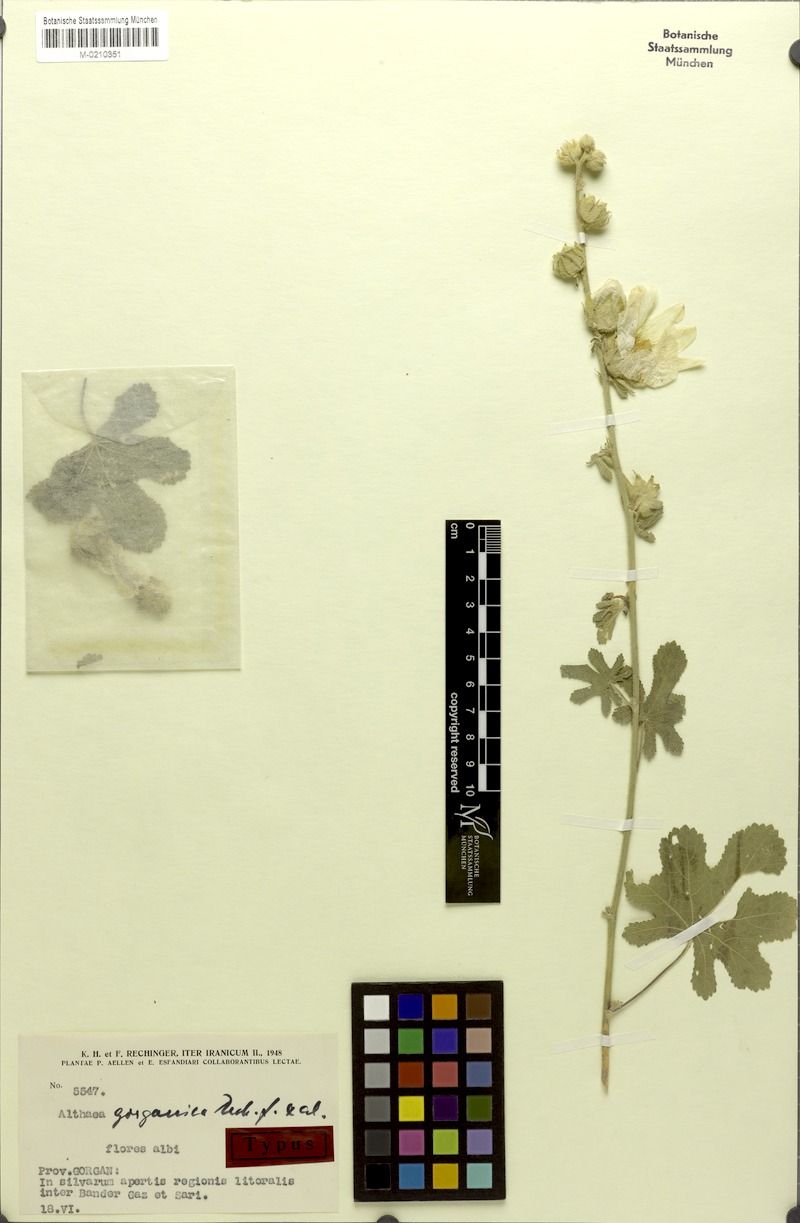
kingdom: Plantae
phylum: Tracheophyta
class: Magnoliopsida
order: Malvales
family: Malvaceae
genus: Alcea
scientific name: Alcea gorganica
